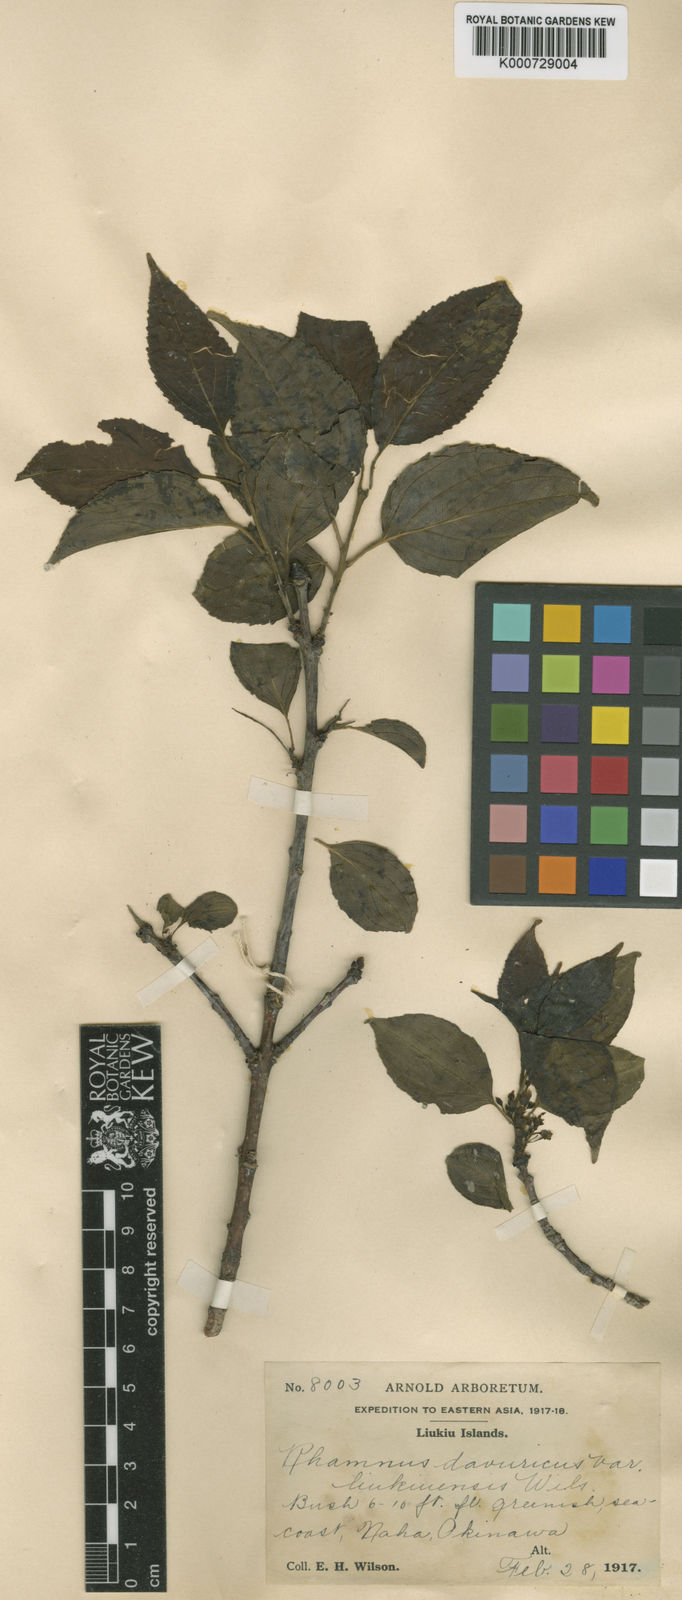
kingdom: Plantae
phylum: Tracheophyta
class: Magnoliopsida
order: Rosales
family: Rhamnaceae
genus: Rhamnus
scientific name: Rhamnus
